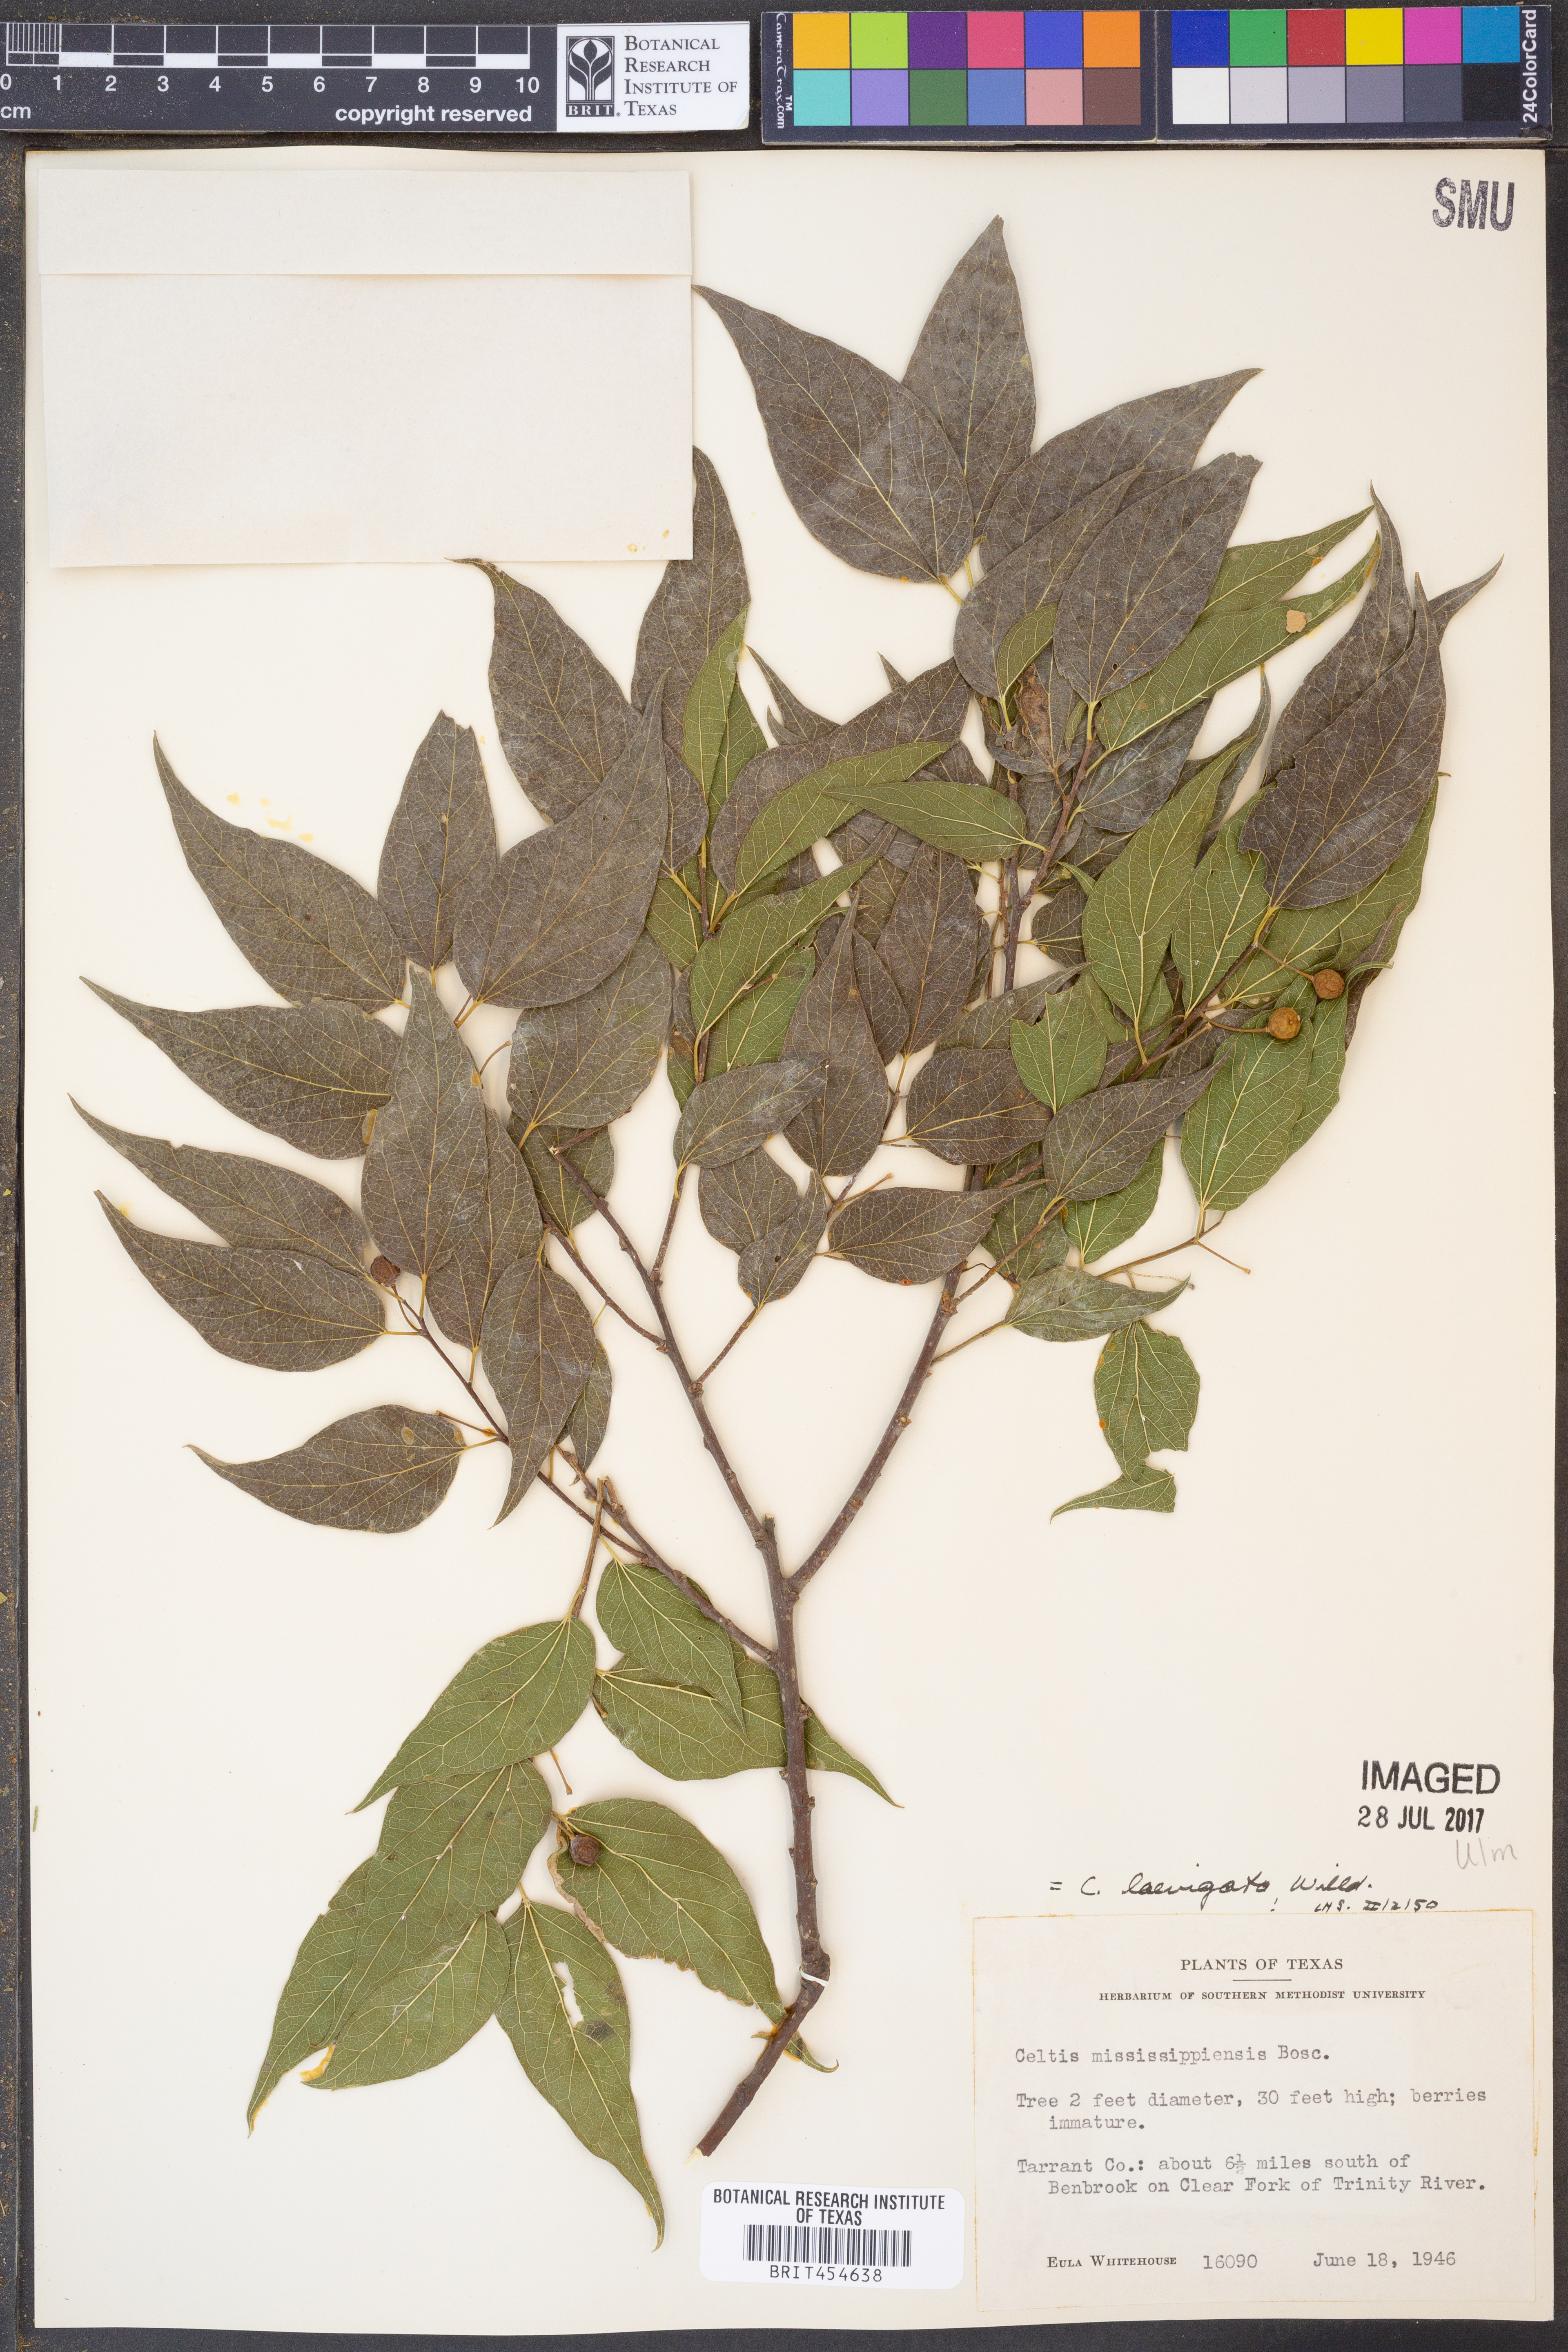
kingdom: Plantae
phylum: Tracheophyta
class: Magnoliopsida
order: Rosales
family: Cannabaceae
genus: Celtis
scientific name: Celtis laevigata
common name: Sugarberry
